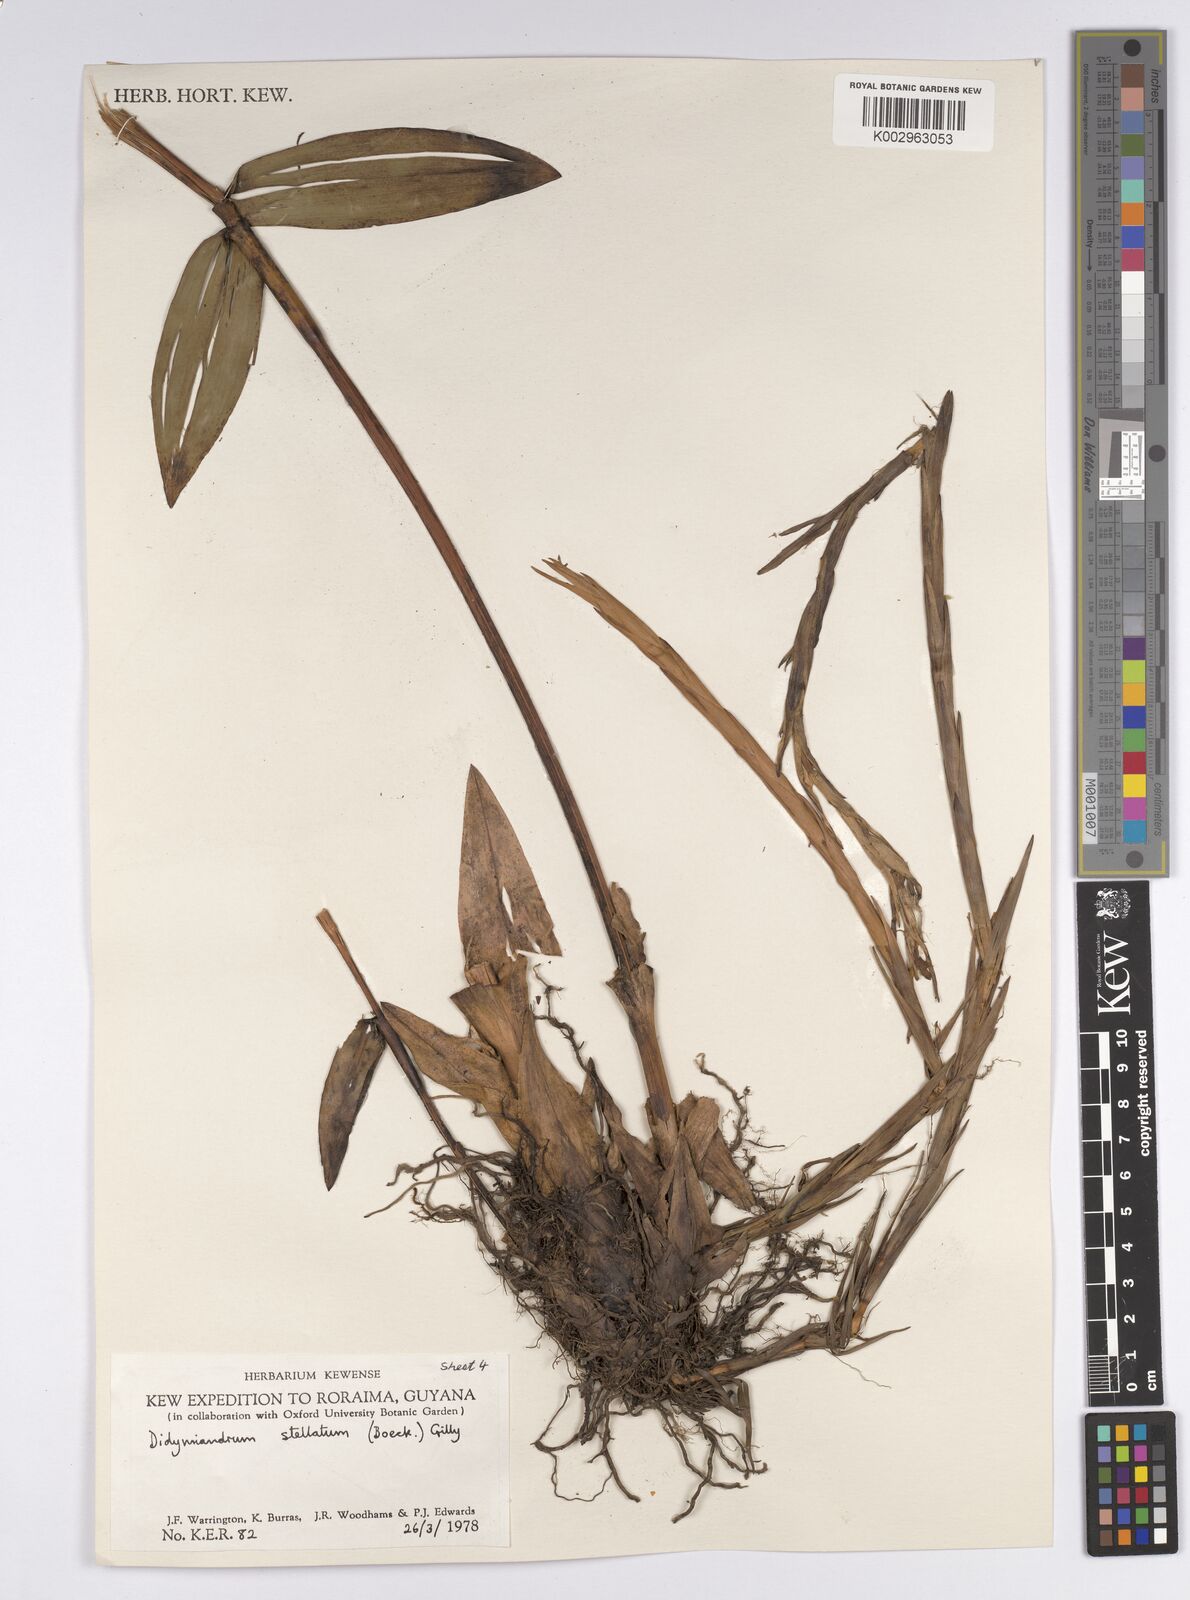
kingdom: Plantae
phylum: Tracheophyta
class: Liliopsida
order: Poales
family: Cyperaceae
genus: Didymiandrum
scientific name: Didymiandrum stellatum
